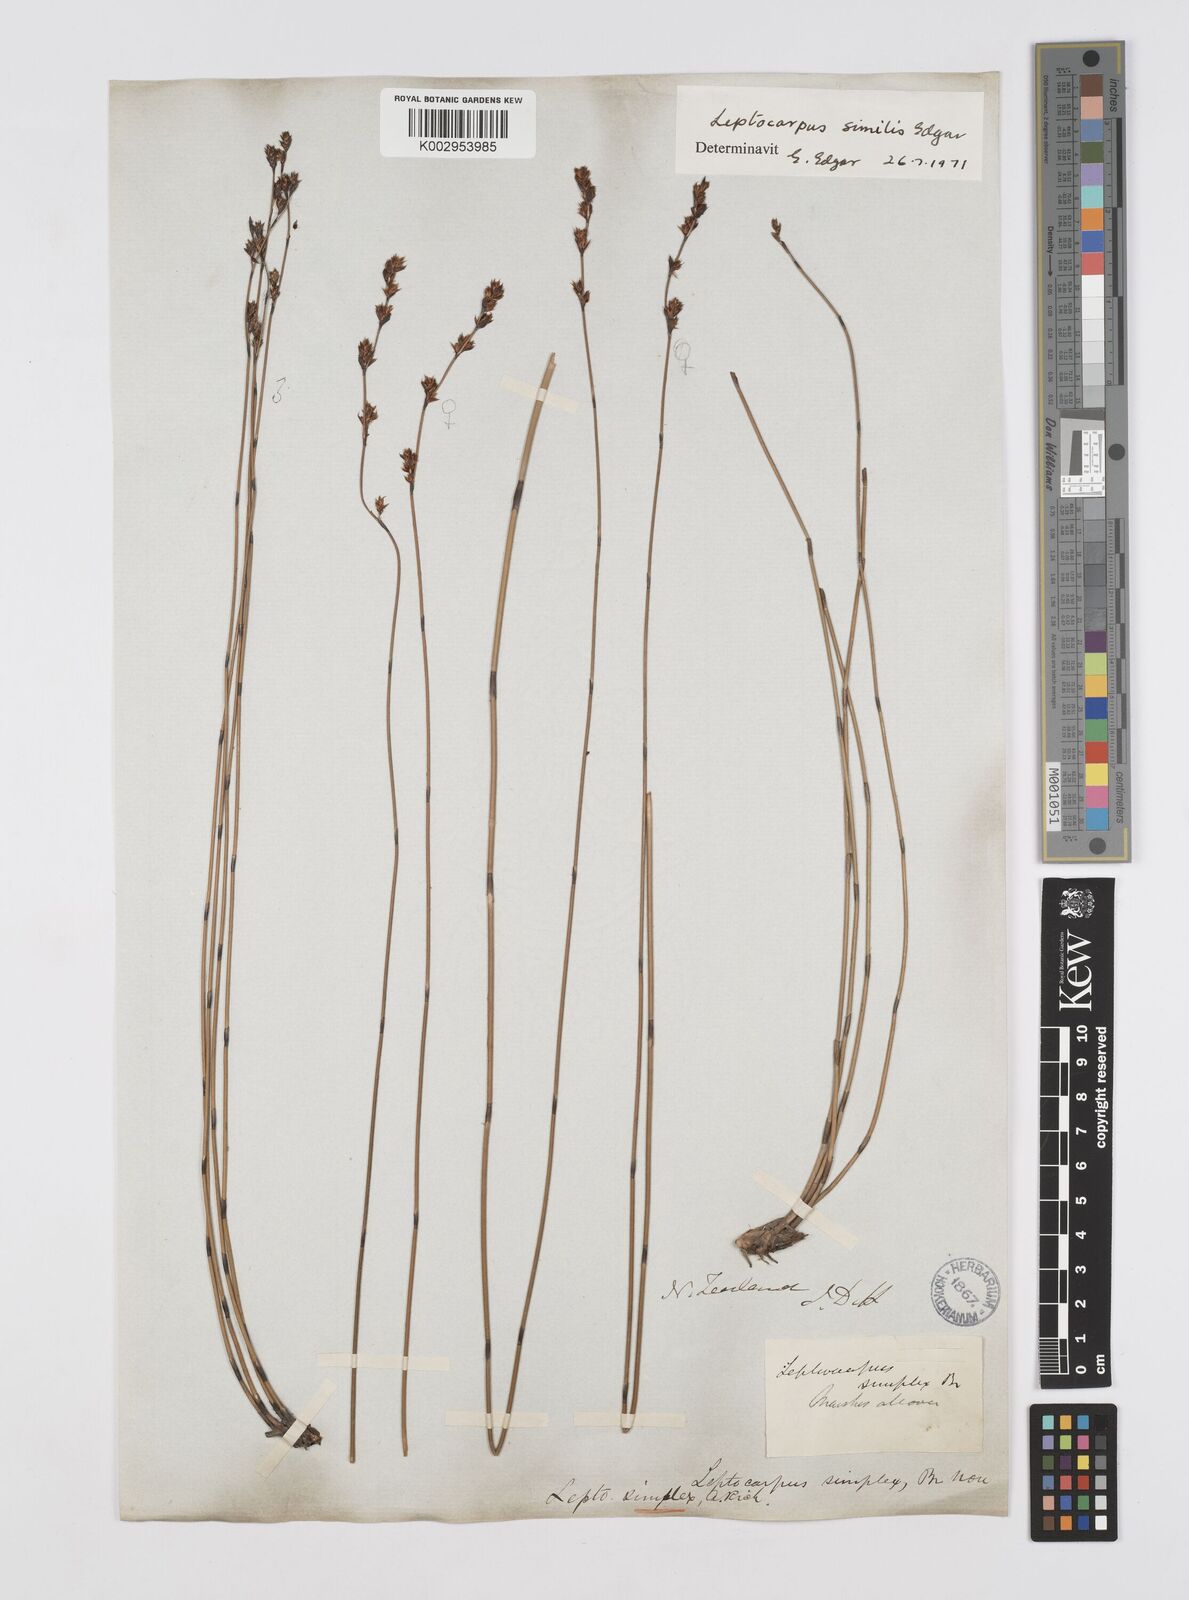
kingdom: Plantae
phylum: Tracheophyta
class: Liliopsida
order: Poales
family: Restionaceae
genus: Apodasmia
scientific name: Apodasmia similis
